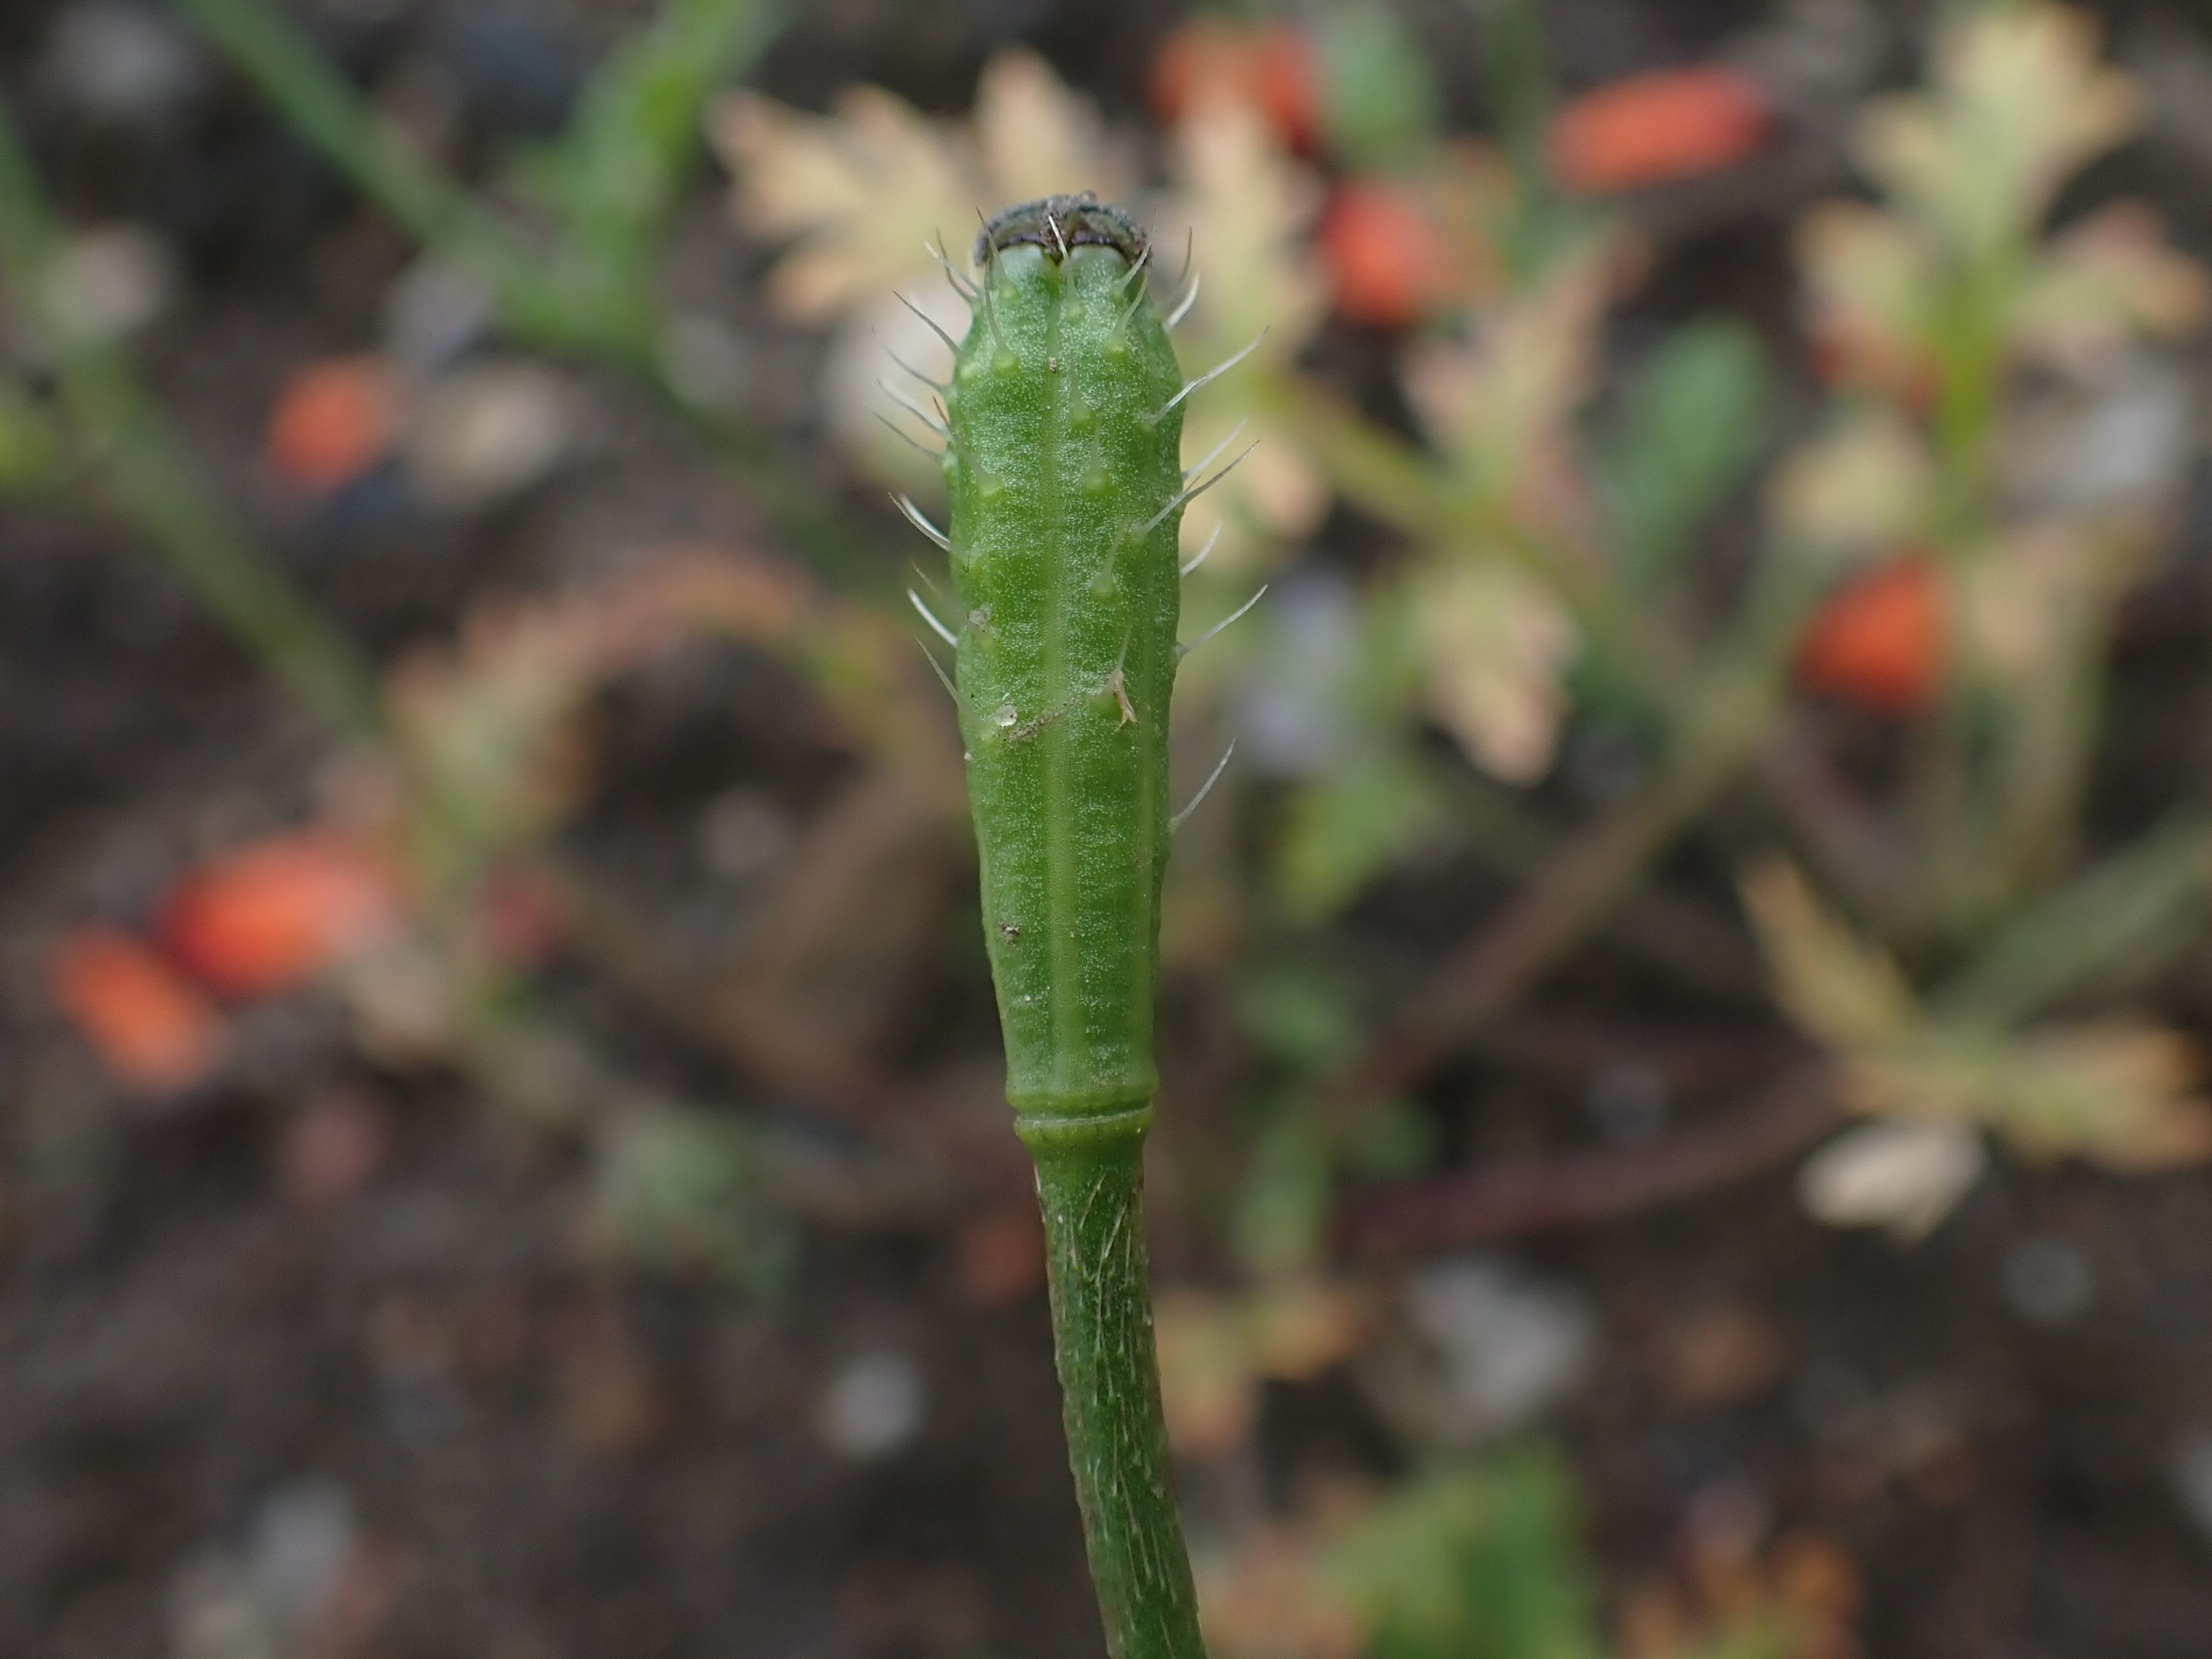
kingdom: Plantae
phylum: Tracheophyta
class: Magnoliopsida
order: Ranunculales
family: Papaveraceae
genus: Roemeria
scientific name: Roemeria argemone
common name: Kølle-valmue
